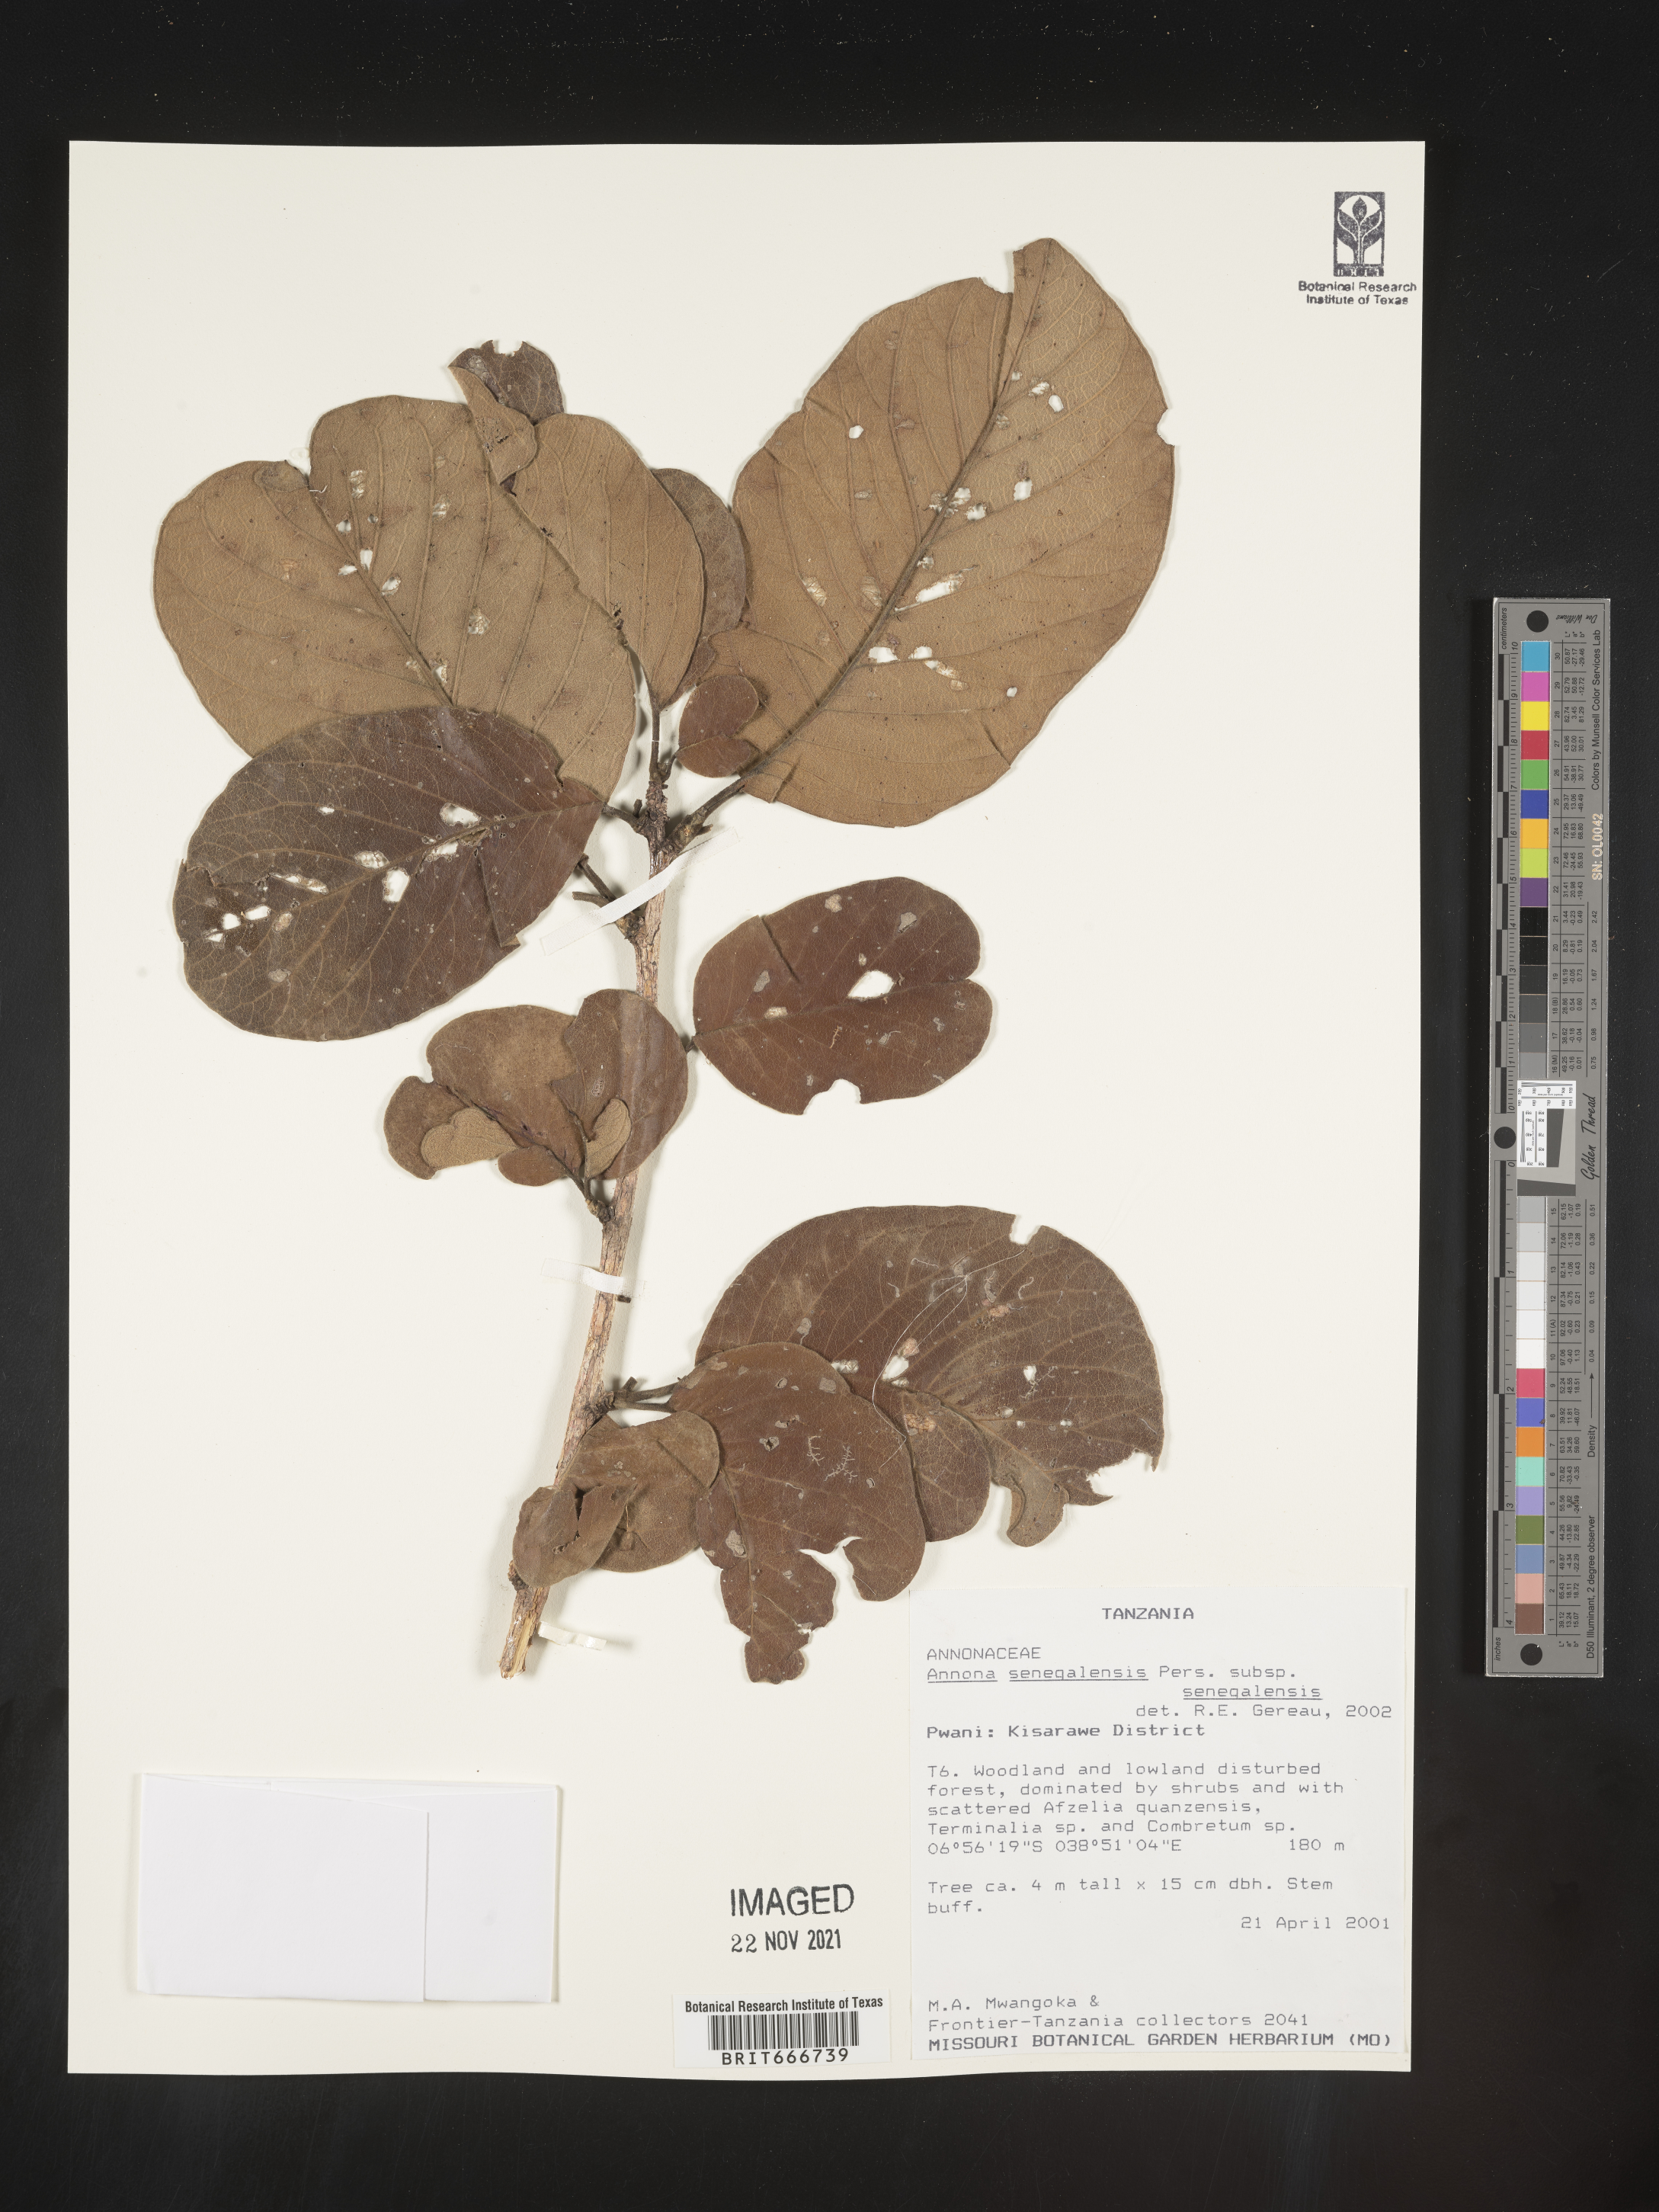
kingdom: Plantae
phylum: Tracheophyta
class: Magnoliopsida
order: Magnoliales
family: Annonaceae
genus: Annona
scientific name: Annona
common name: Anona
